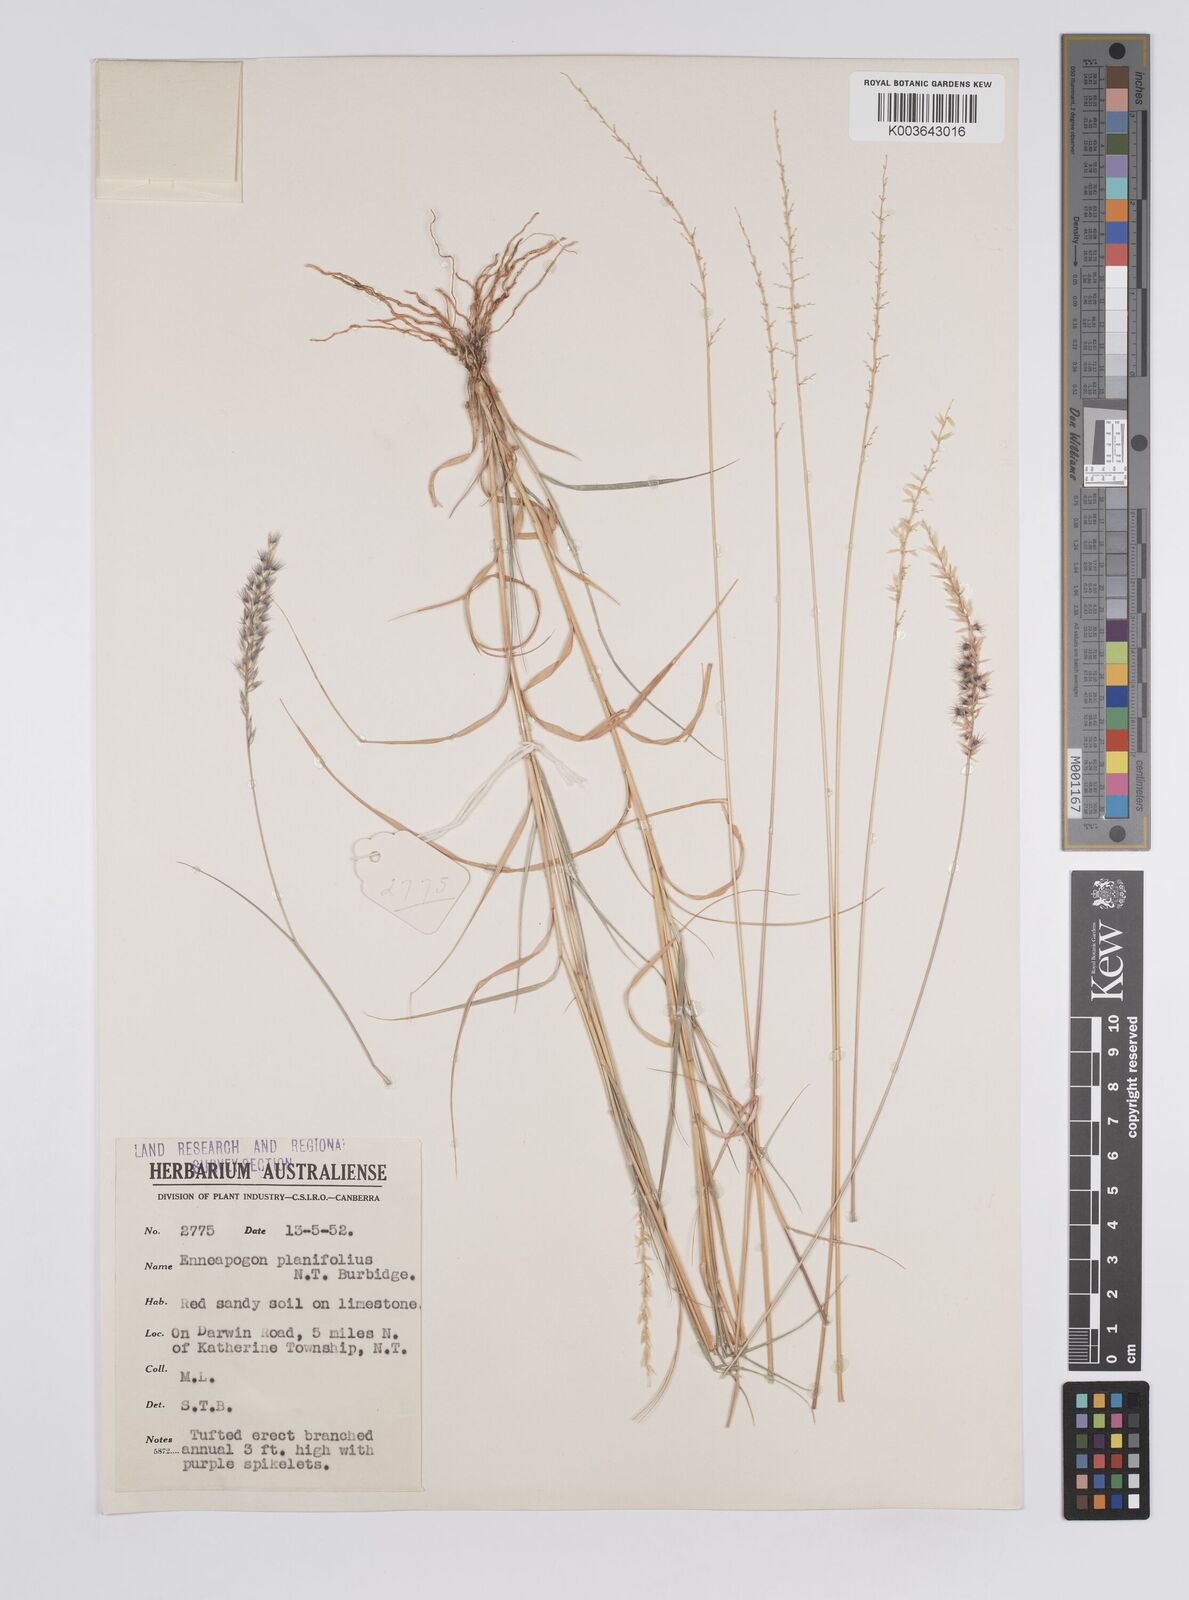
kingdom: Plantae
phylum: Tracheophyta
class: Liliopsida
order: Poales
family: Poaceae
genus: Enneapogon
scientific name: Enneapogon purpurascens
